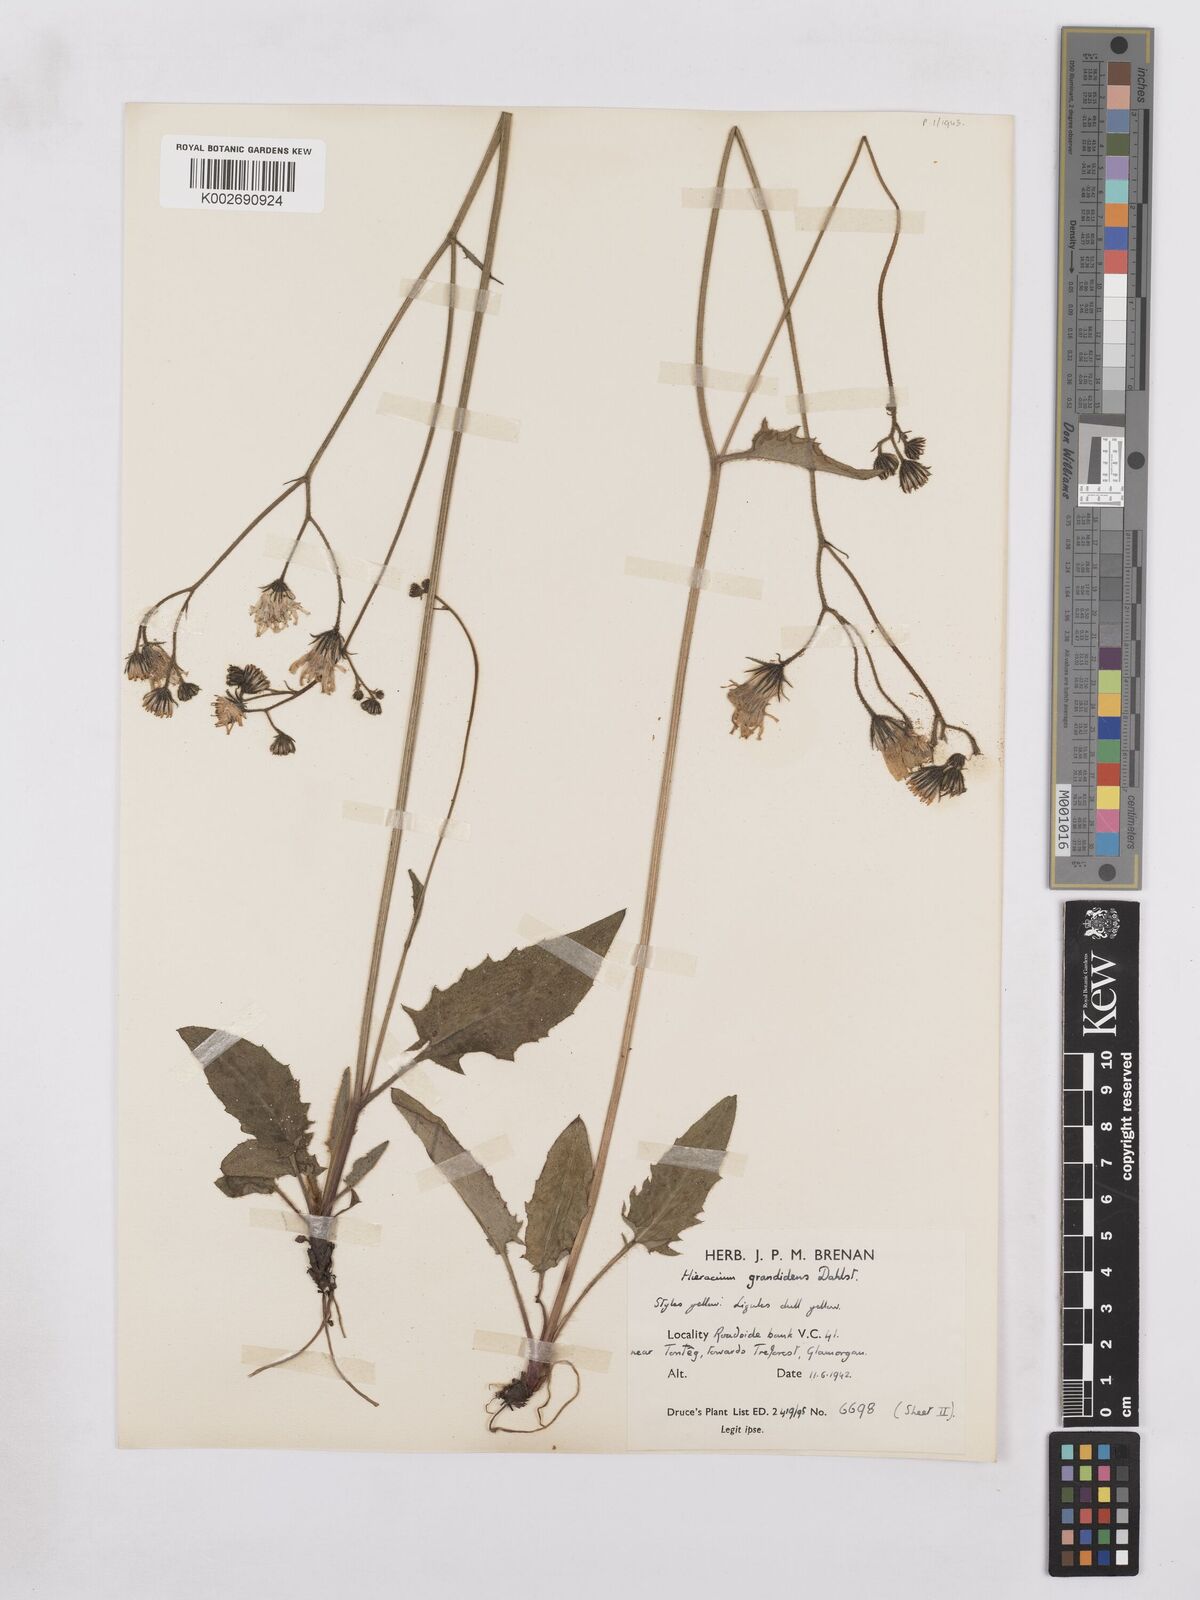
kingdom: Plantae
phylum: Tracheophyta
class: Magnoliopsida
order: Asterales
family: Asteraceae
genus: Hieracium
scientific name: Hieracium murorum
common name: Wall hawkweed
